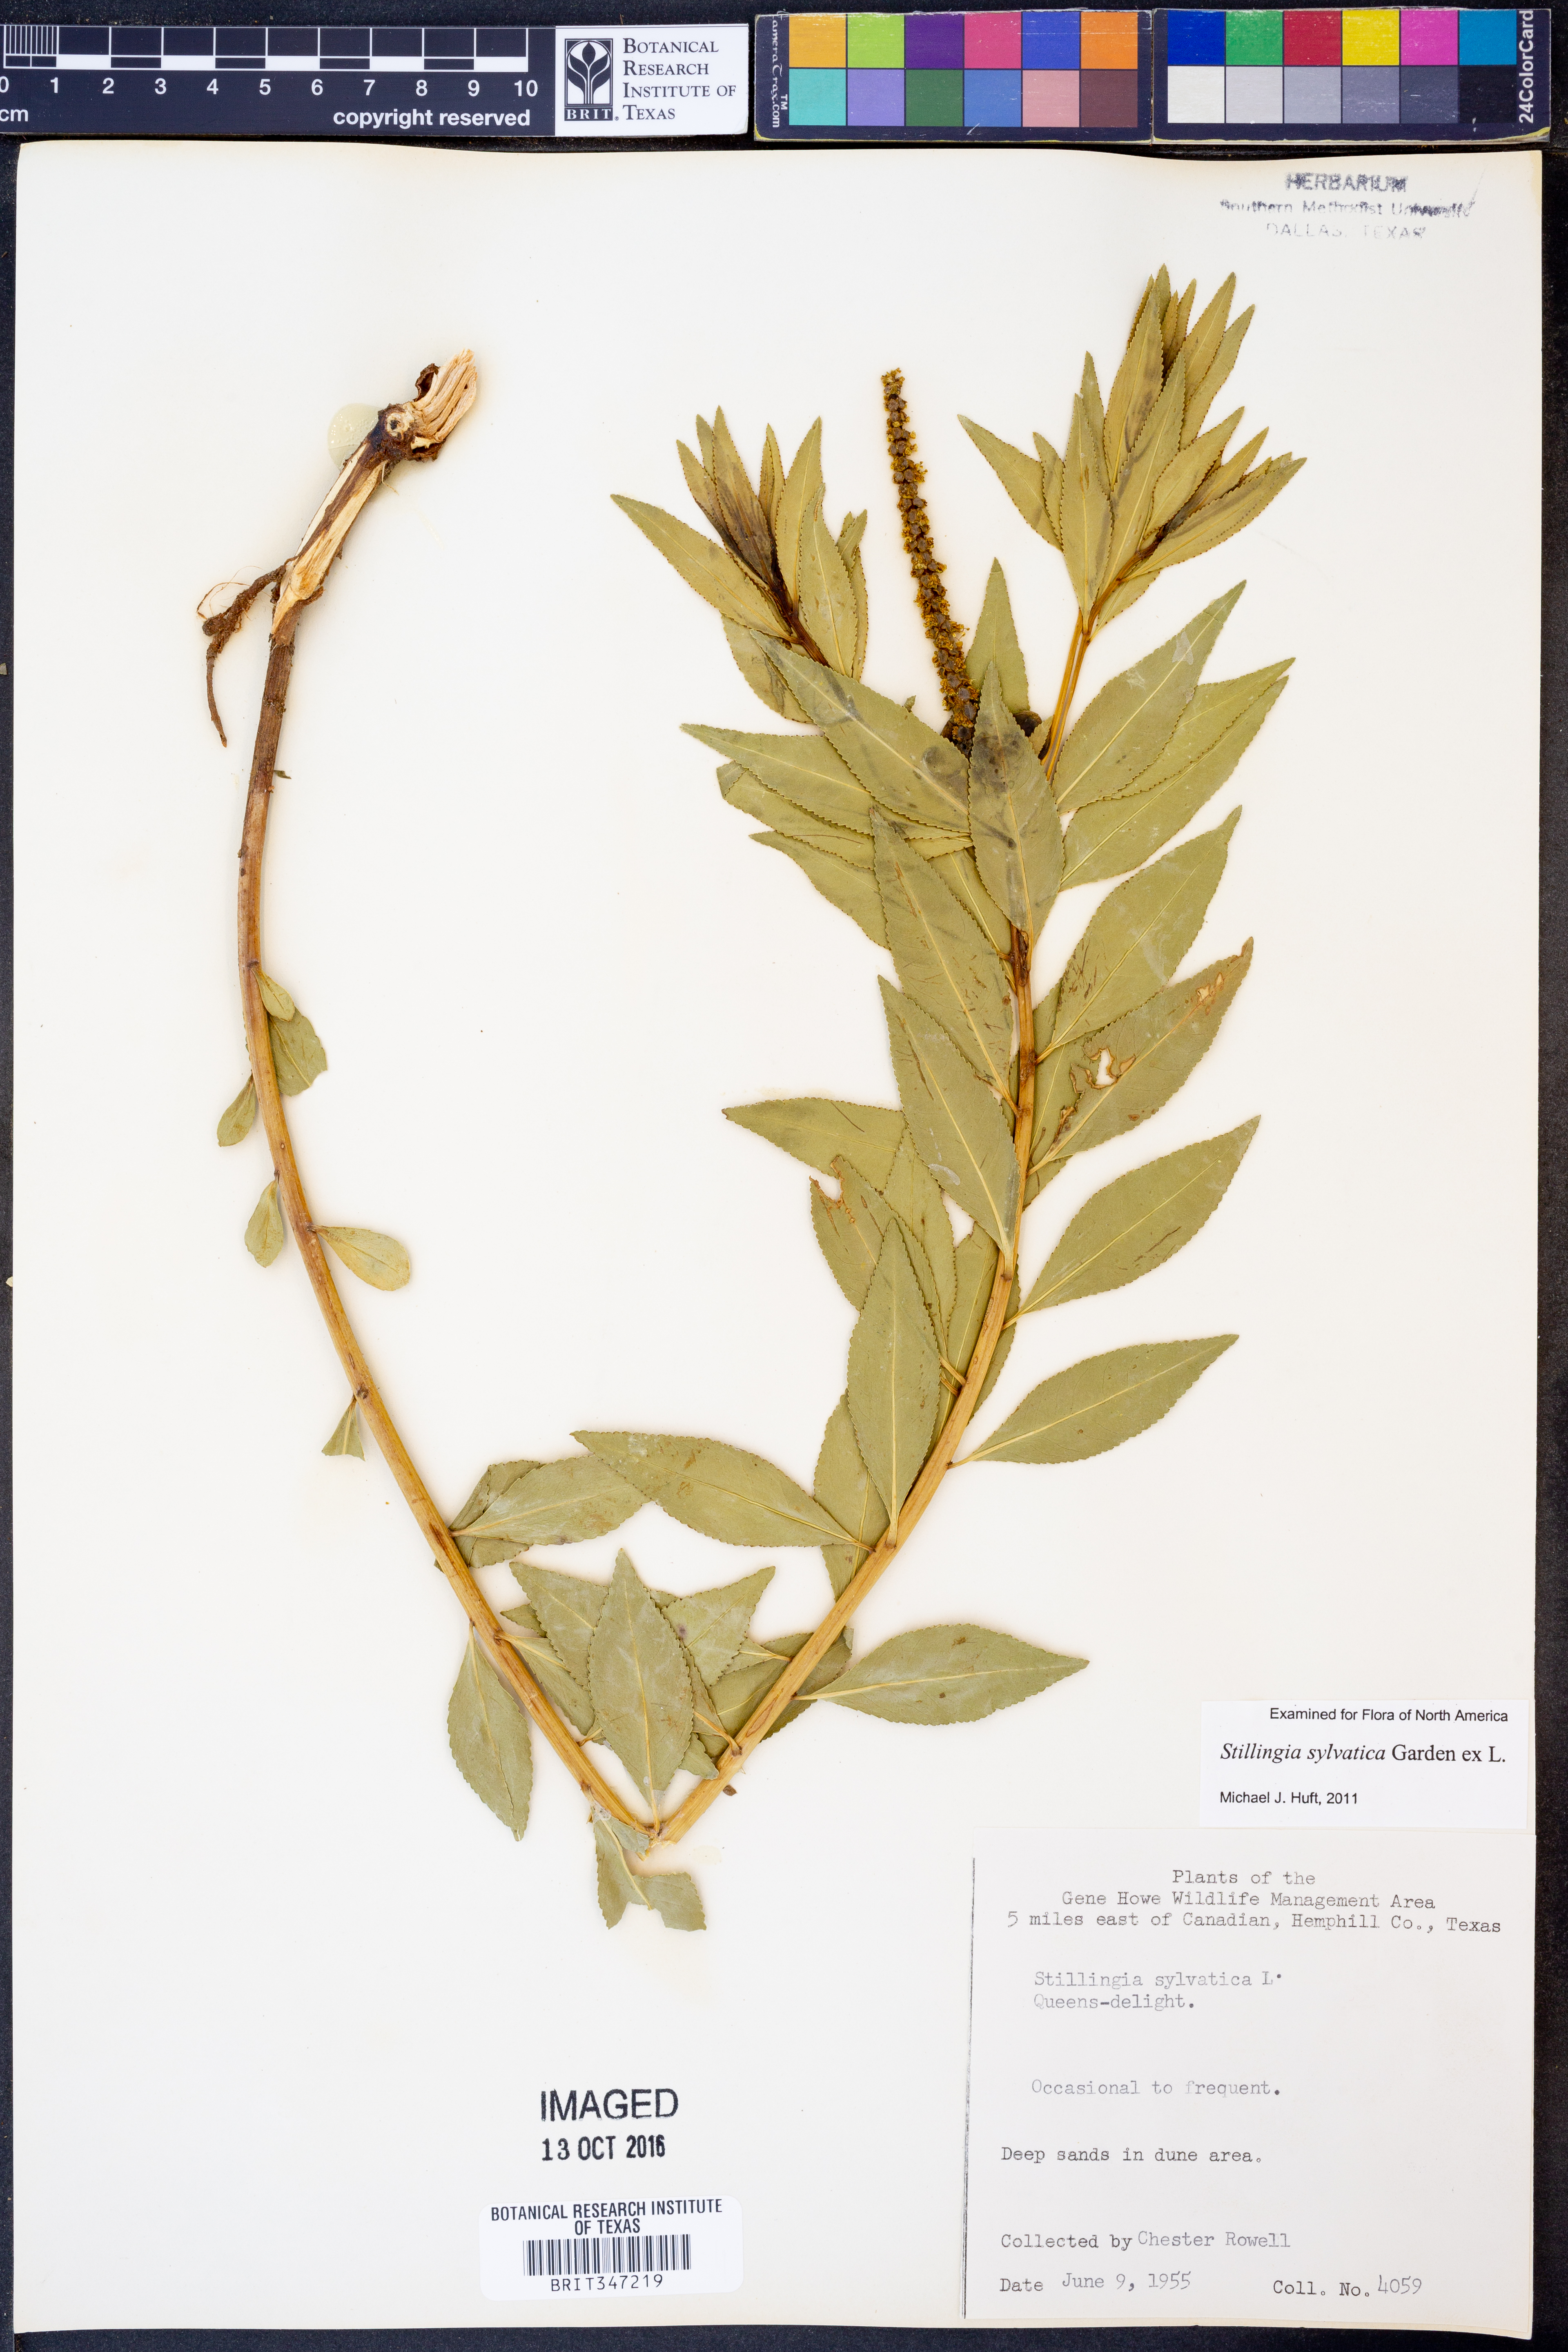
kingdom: Plantae
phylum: Tracheophyta
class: Magnoliopsida
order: Malpighiales
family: Euphorbiaceae
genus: Stillingia
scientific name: Stillingia sylvatica
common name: Queen's-delight
